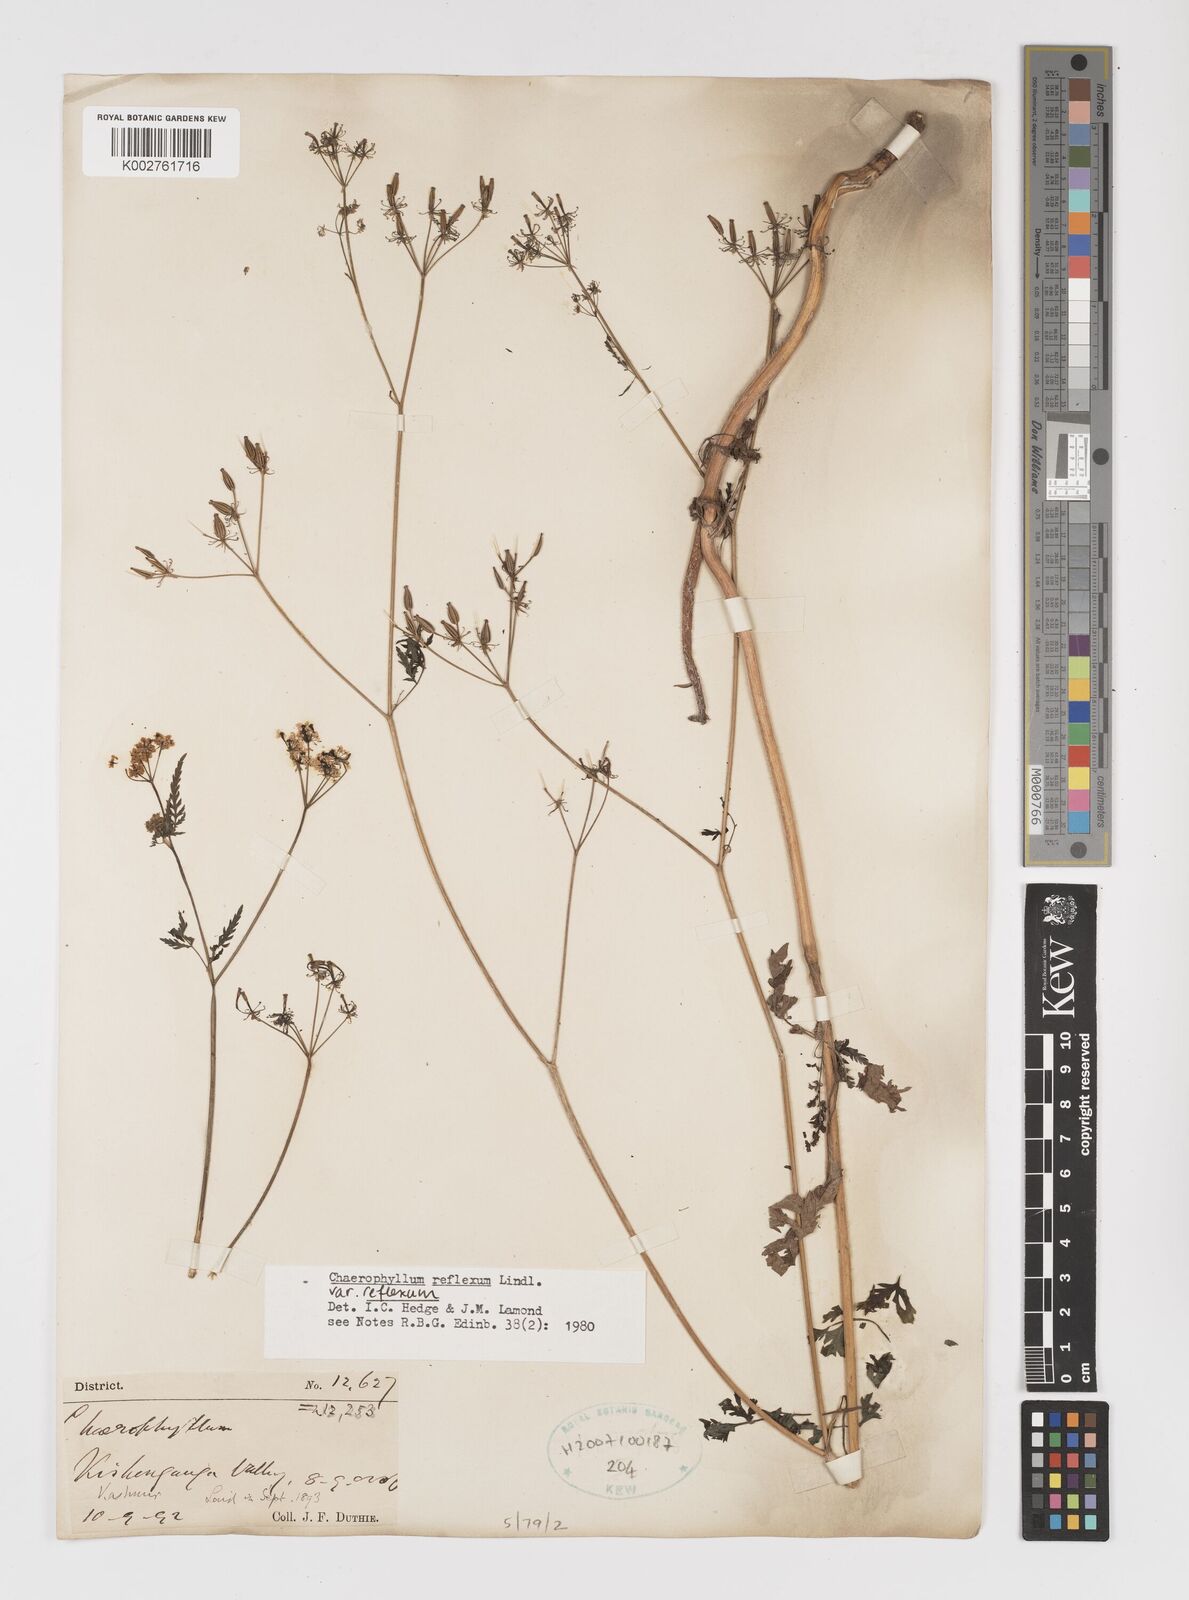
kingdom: Plantae
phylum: Tracheophyta
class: Magnoliopsida
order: Apiales
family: Apiaceae
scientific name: Apiaceae
